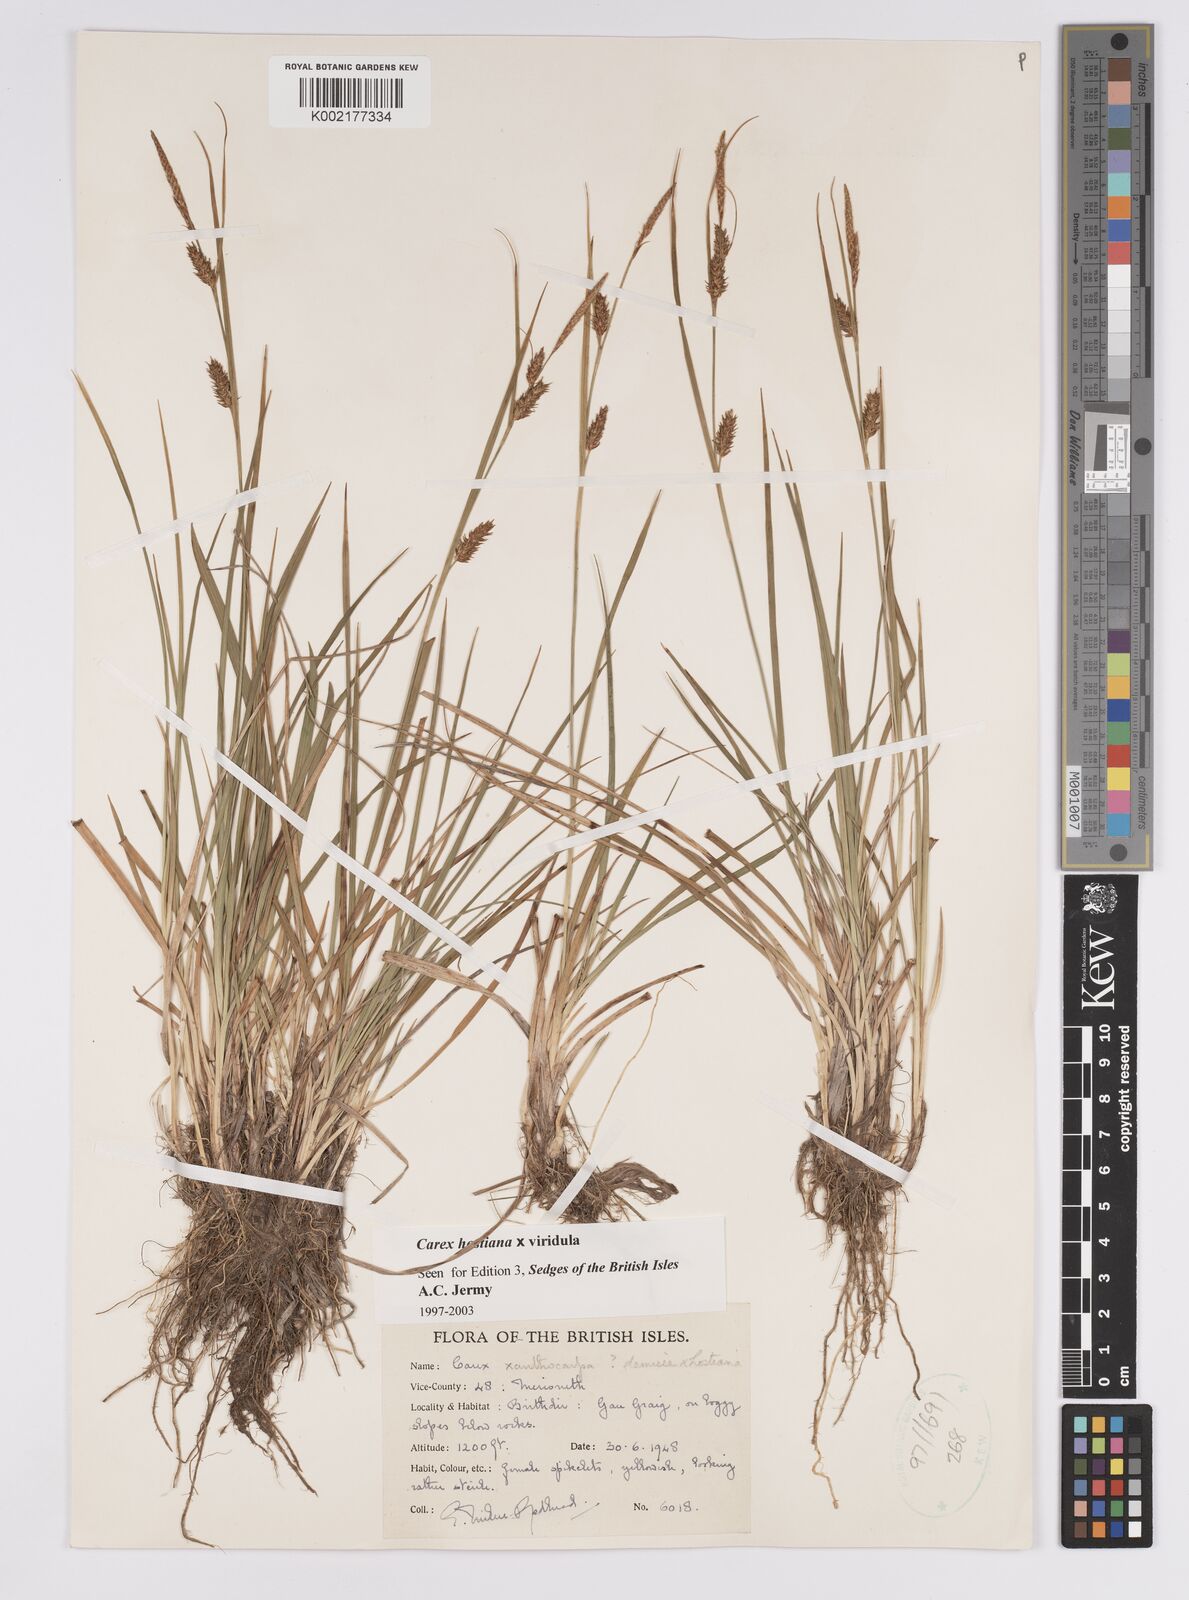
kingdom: Plantae
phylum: Tracheophyta
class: Liliopsida
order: Poales
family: Cyperaceae
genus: Carex
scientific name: Carex hostiana
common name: Tawny sedge
